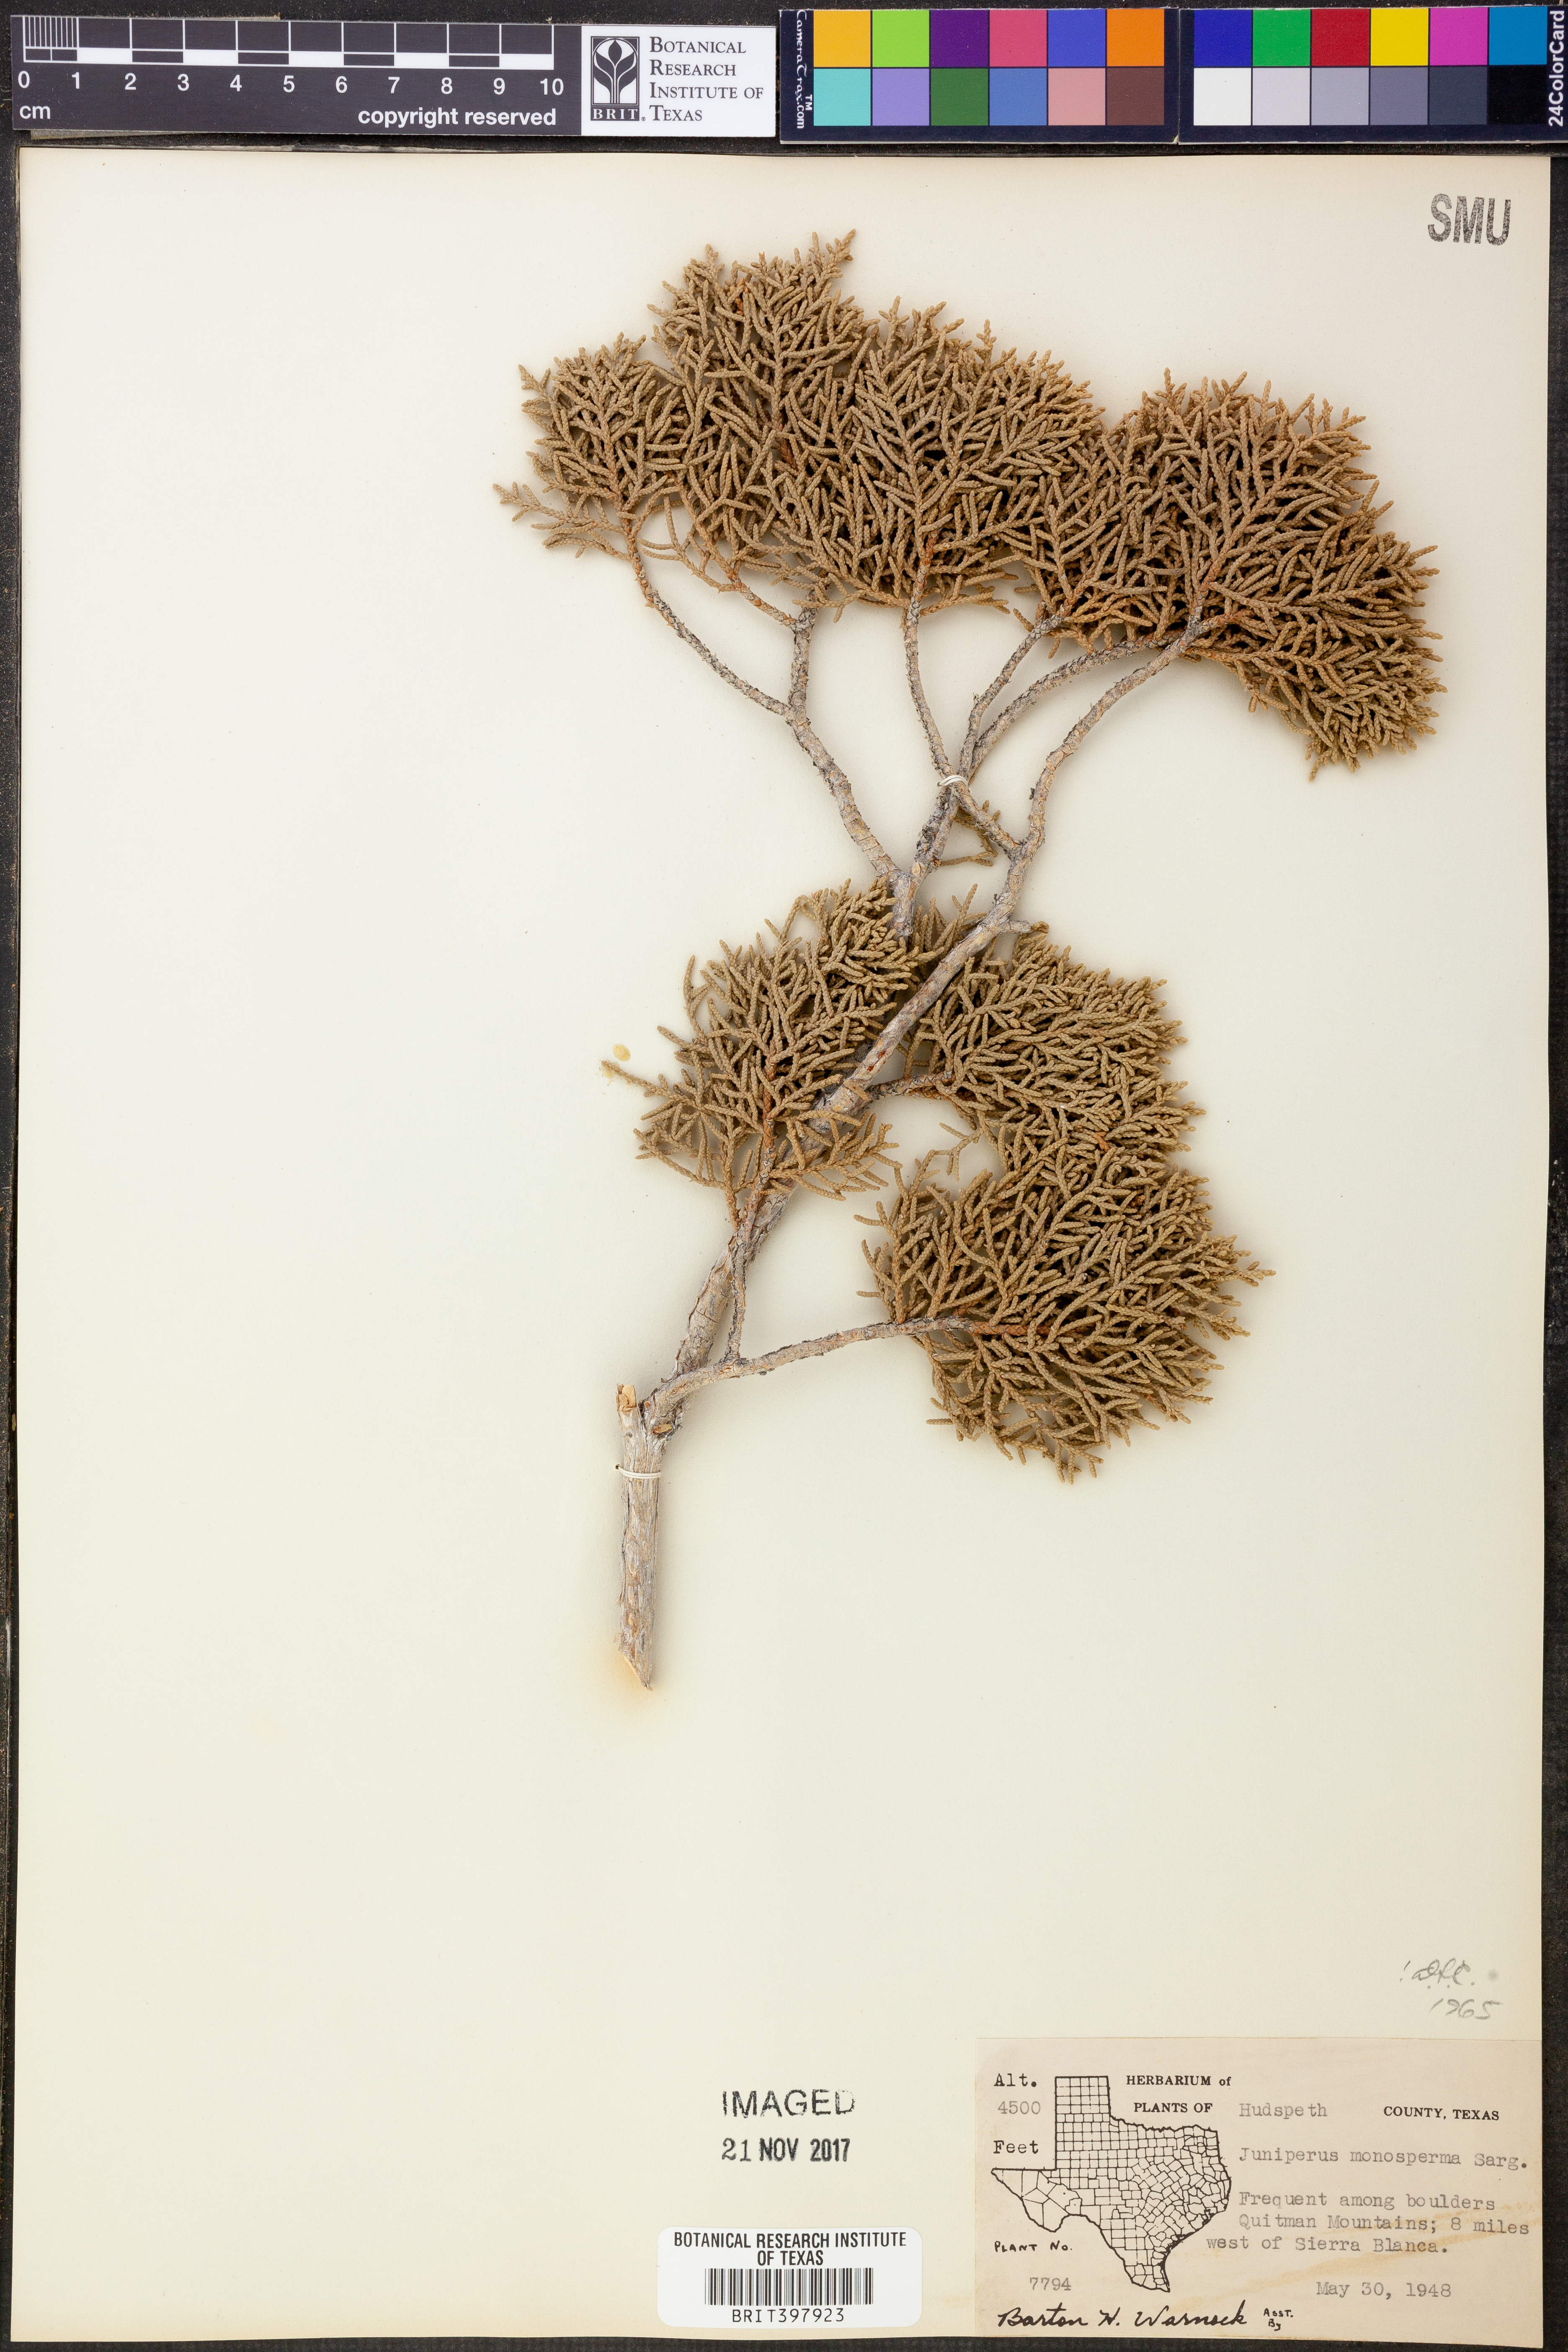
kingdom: Plantae
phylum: Tracheophyta
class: Pinopsida
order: Pinales
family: Cupressaceae
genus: Juniperus
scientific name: Juniperus monosperma
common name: One-seed juniper
